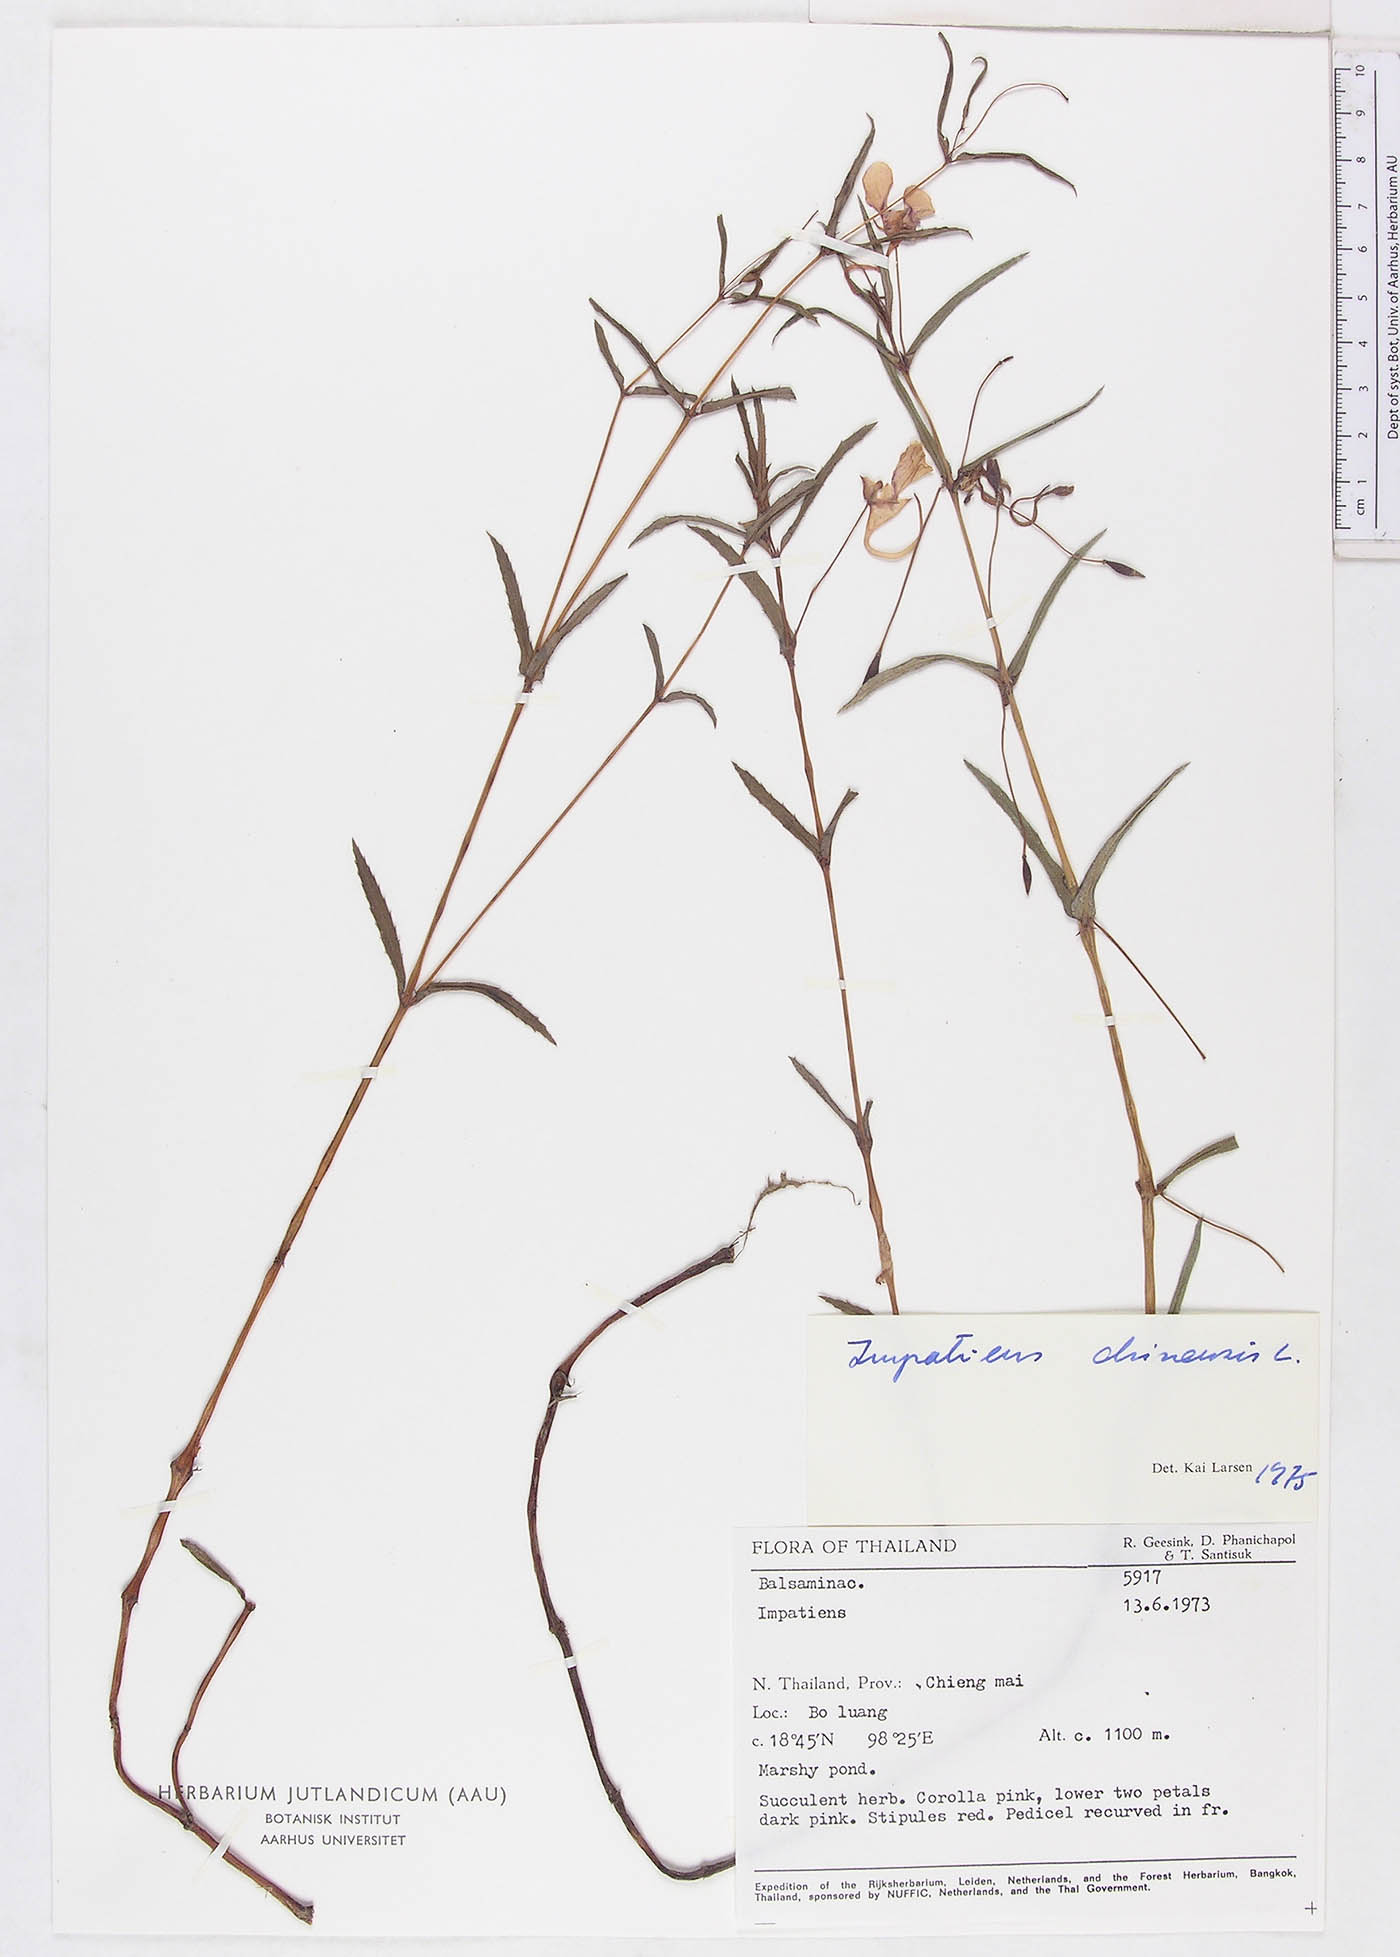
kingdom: Plantae
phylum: Tracheophyta
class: Magnoliopsida
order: Ericales
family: Balsaminaceae
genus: Impatiens
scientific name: Impatiens chinensis
